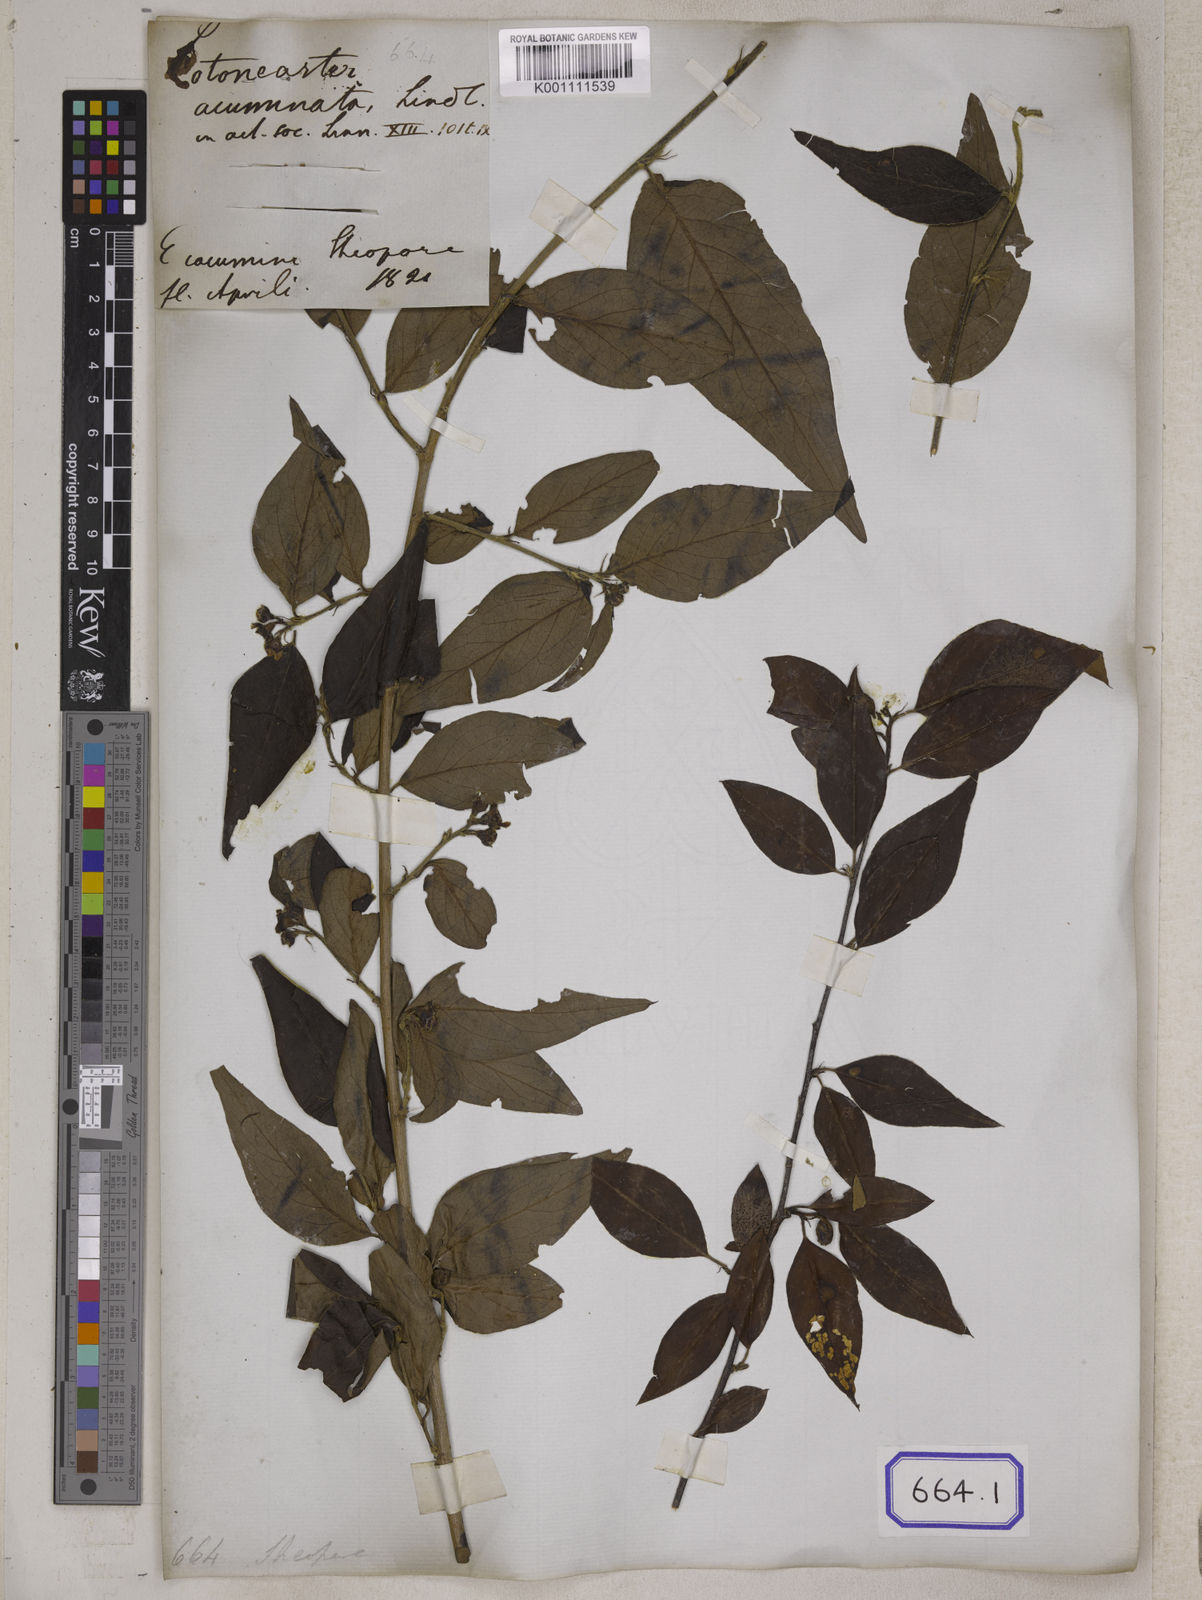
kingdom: Plantae
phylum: Tracheophyta
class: Magnoliopsida
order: Rosales
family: Rosaceae
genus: Cotoneaster
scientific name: Cotoneaster acuminatus
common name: Acuminate cotoneaster
